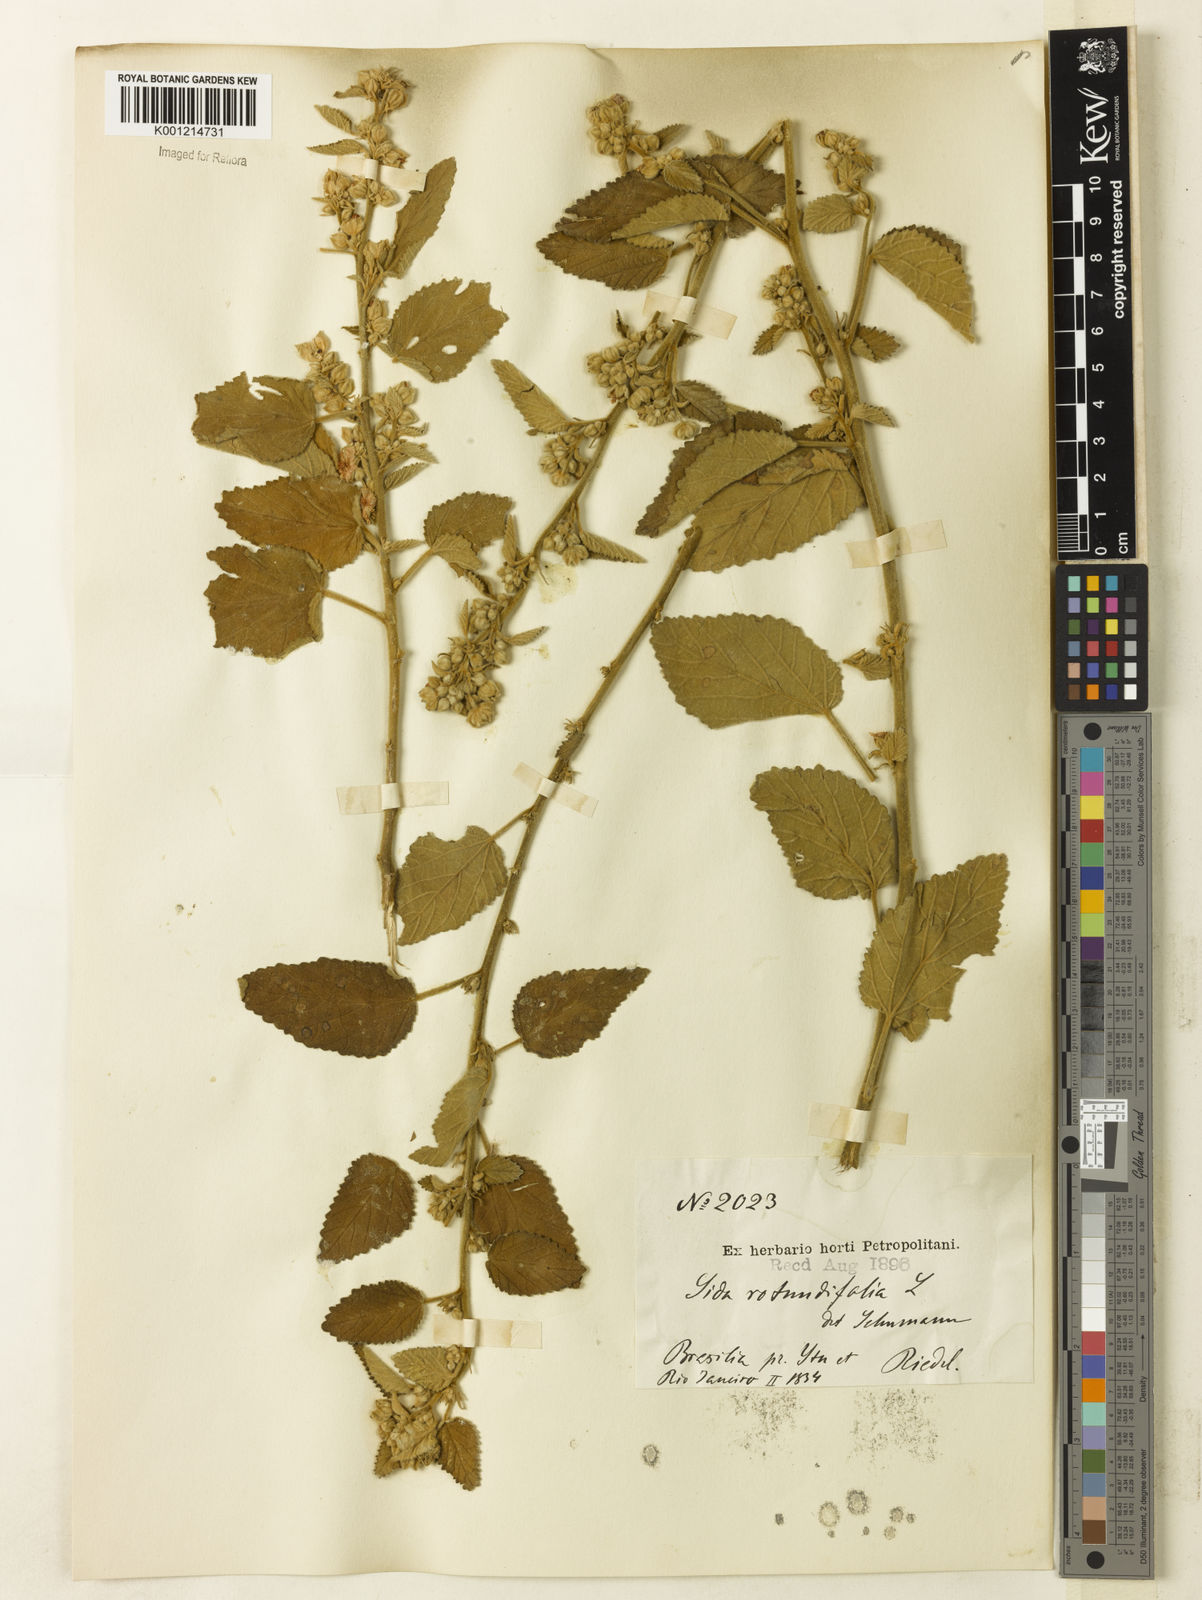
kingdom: Plantae
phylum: Tracheophyta
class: Magnoliopsida
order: Malvales
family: Malvaceae
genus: Sida
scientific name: Sida cordifolia
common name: Ilima
